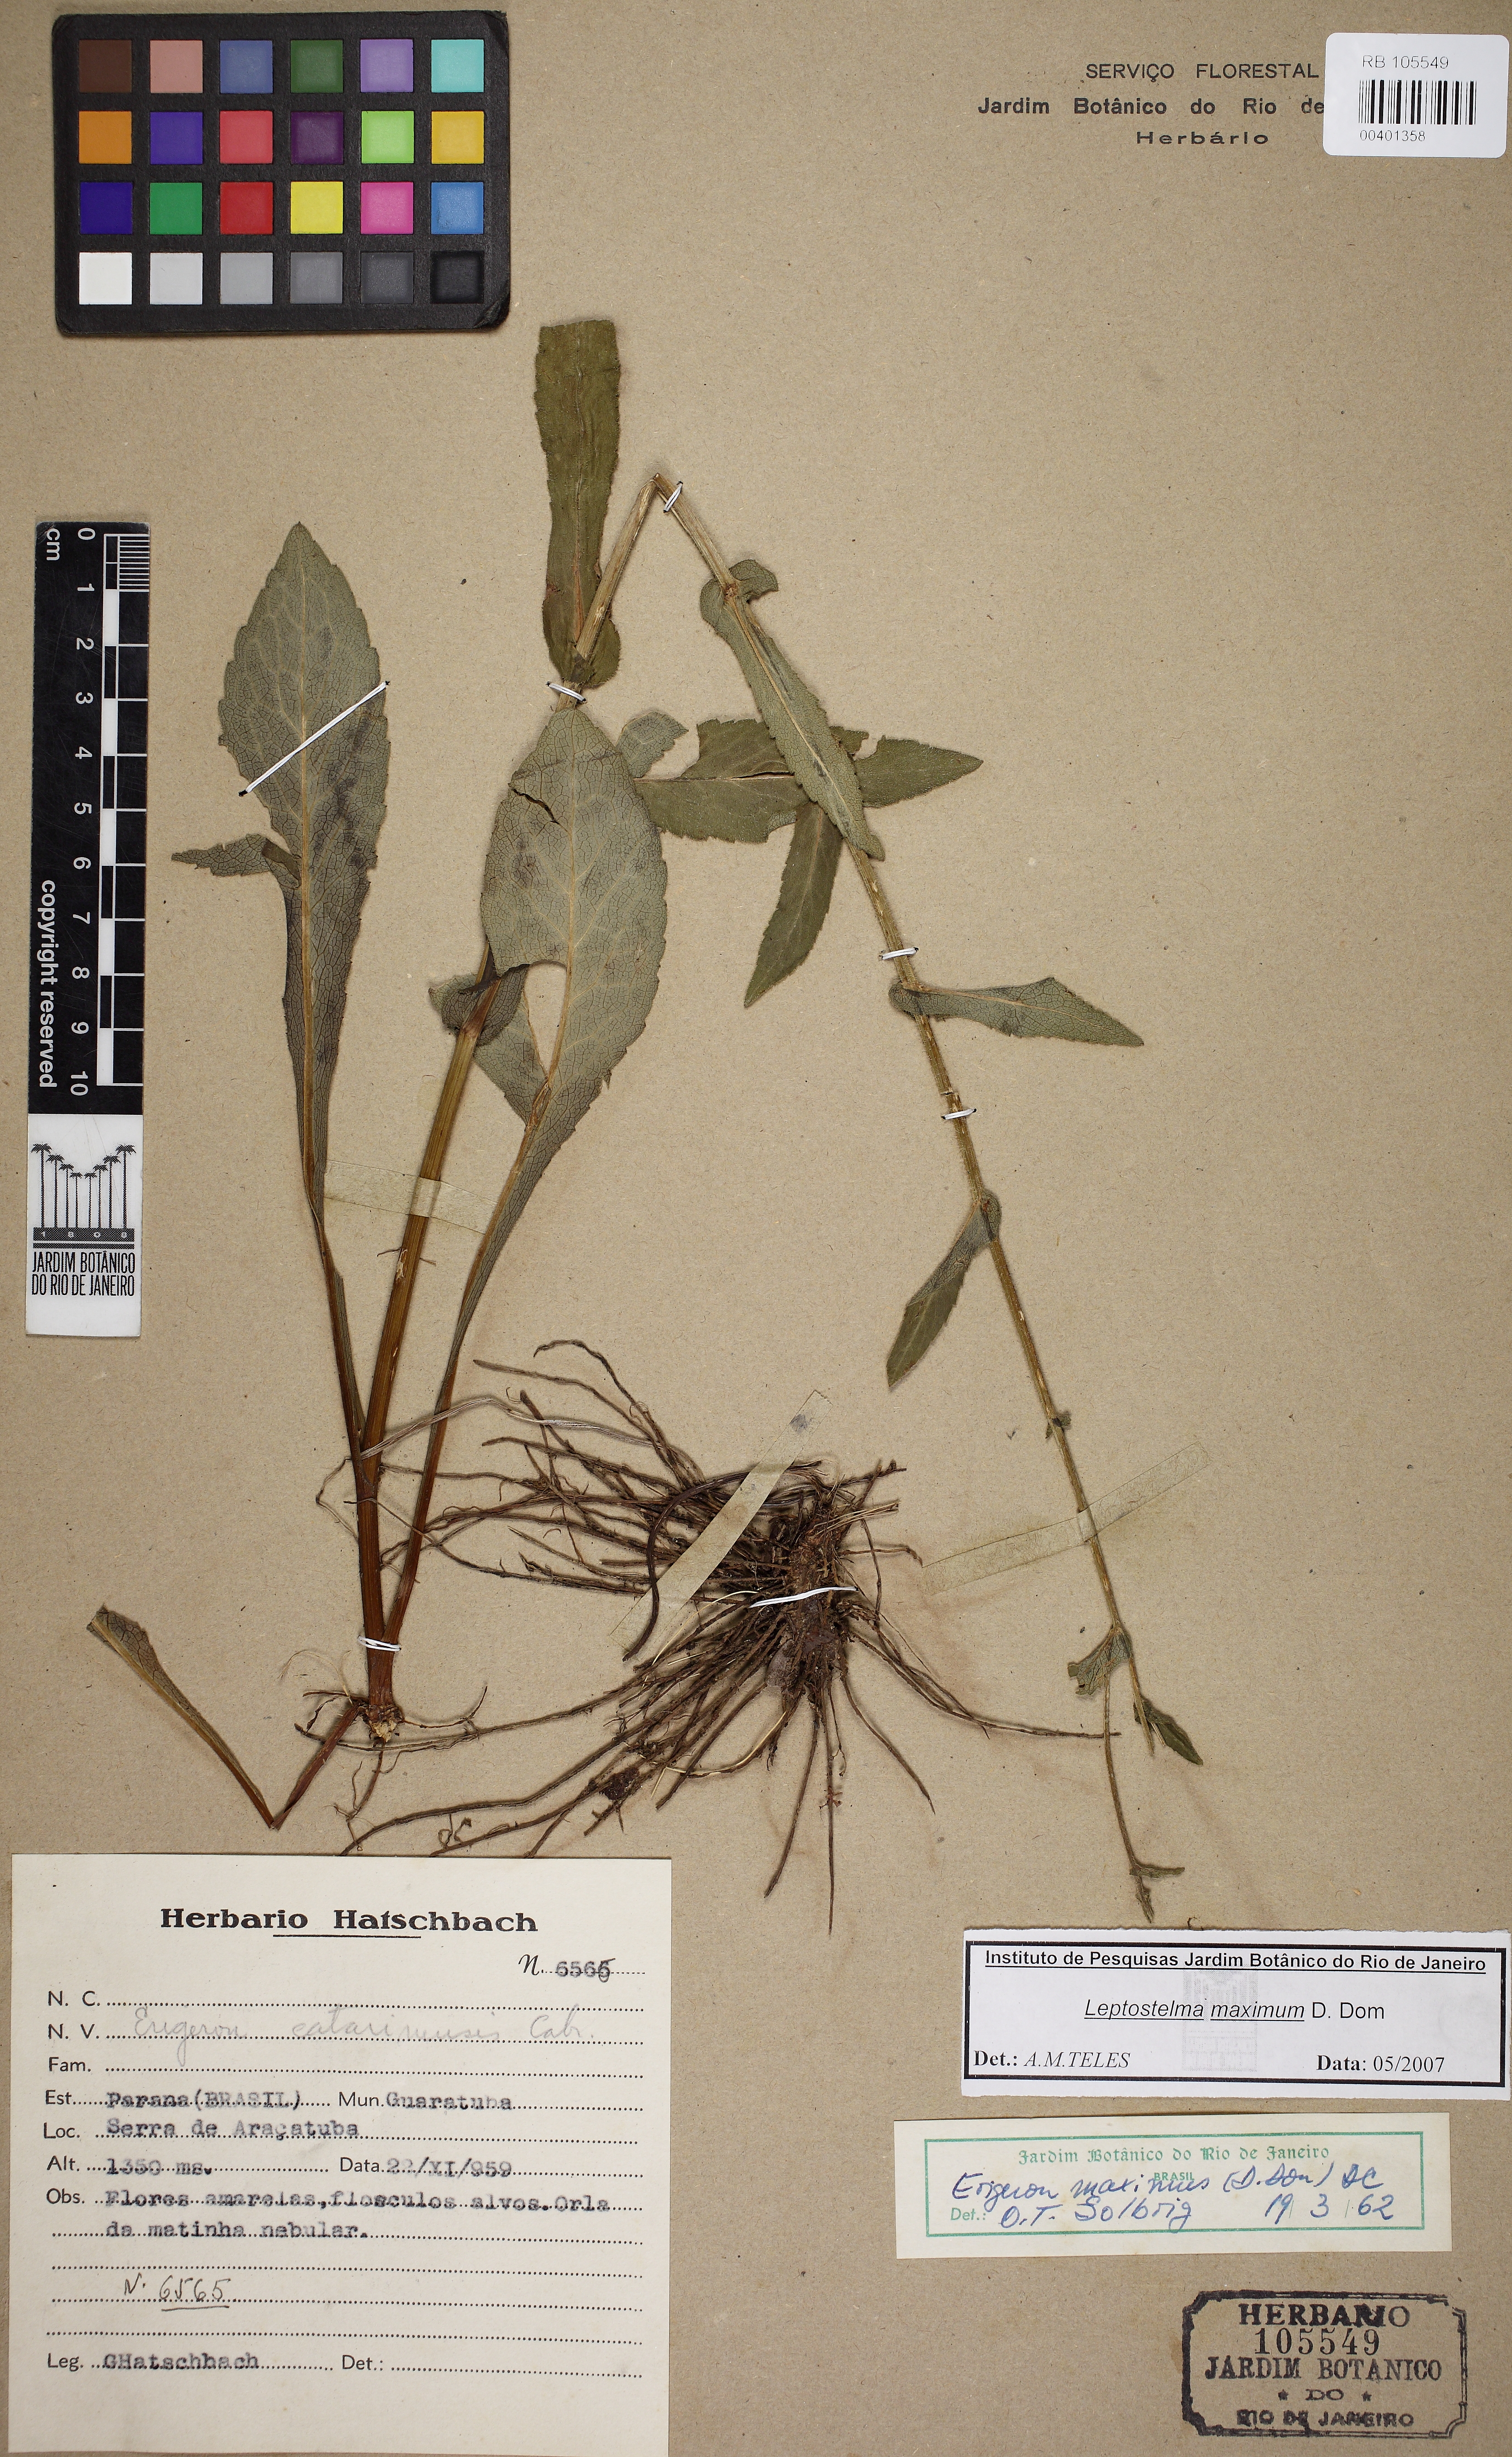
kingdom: Plantae
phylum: Tracheophyta
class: Magnoliopsida
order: Asterales
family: Asteraceae
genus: Erigeron
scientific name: Erigeron catharinensis
